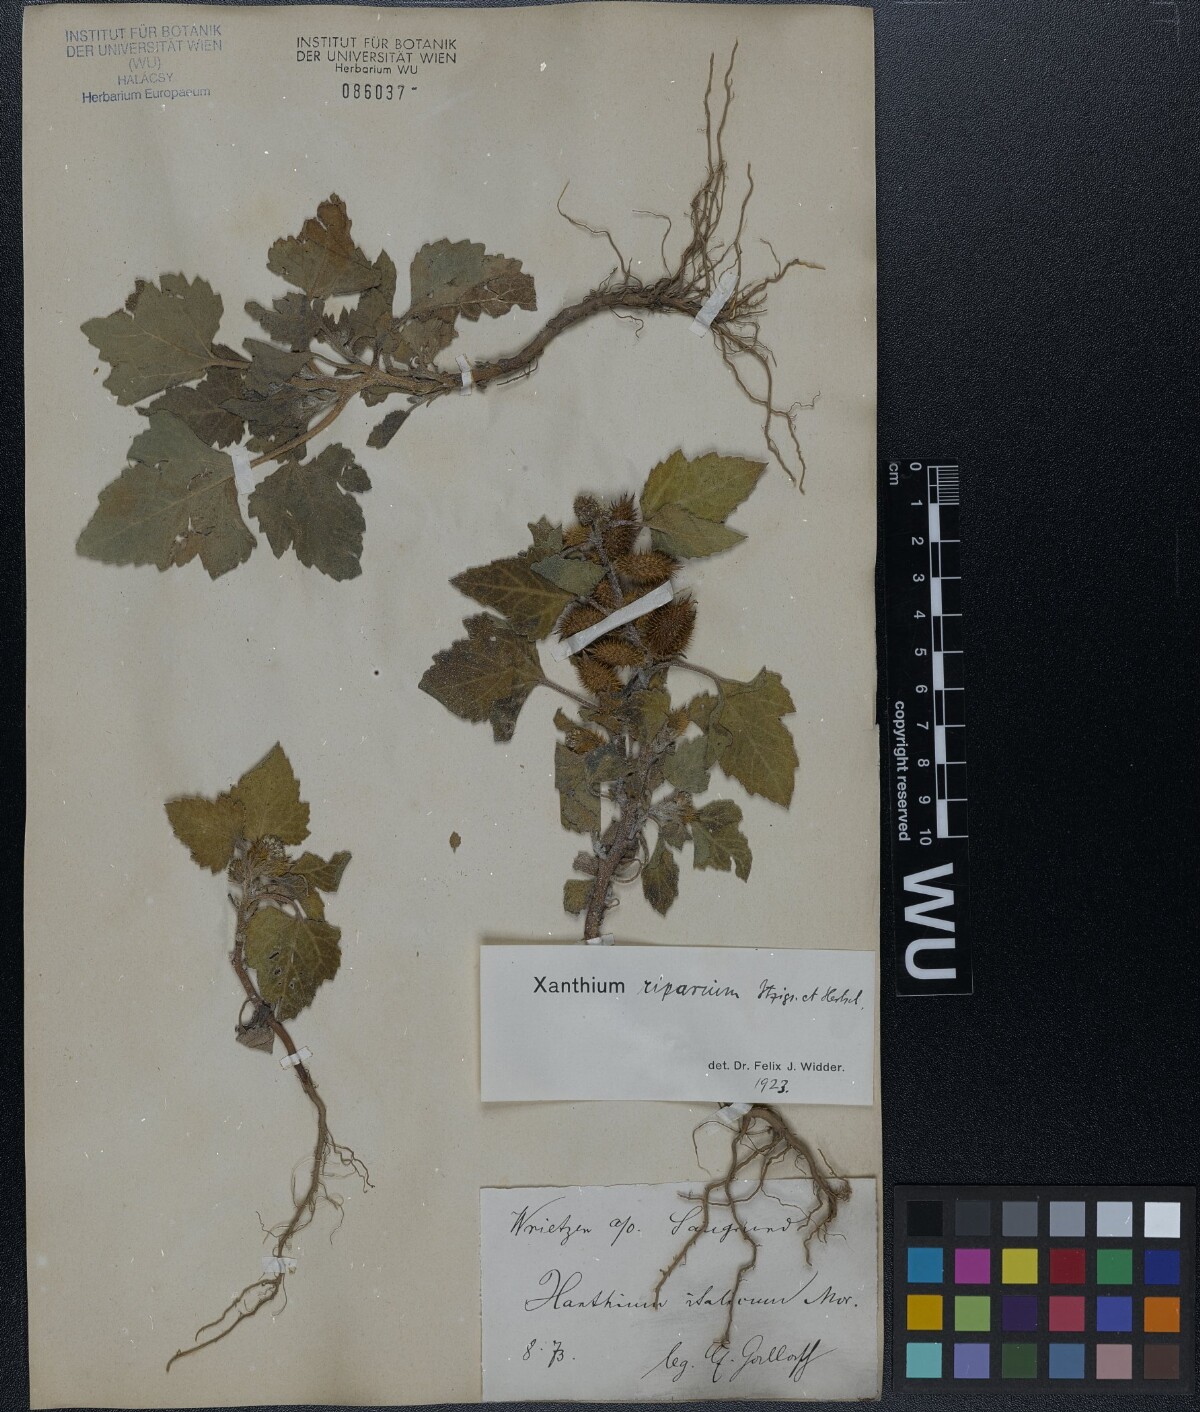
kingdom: Plantae
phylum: Tracheophyta
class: Magnoliopsida
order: Asterales
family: Asteraceae
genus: Xanthium
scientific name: Xanthium orientale
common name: Californian burr
